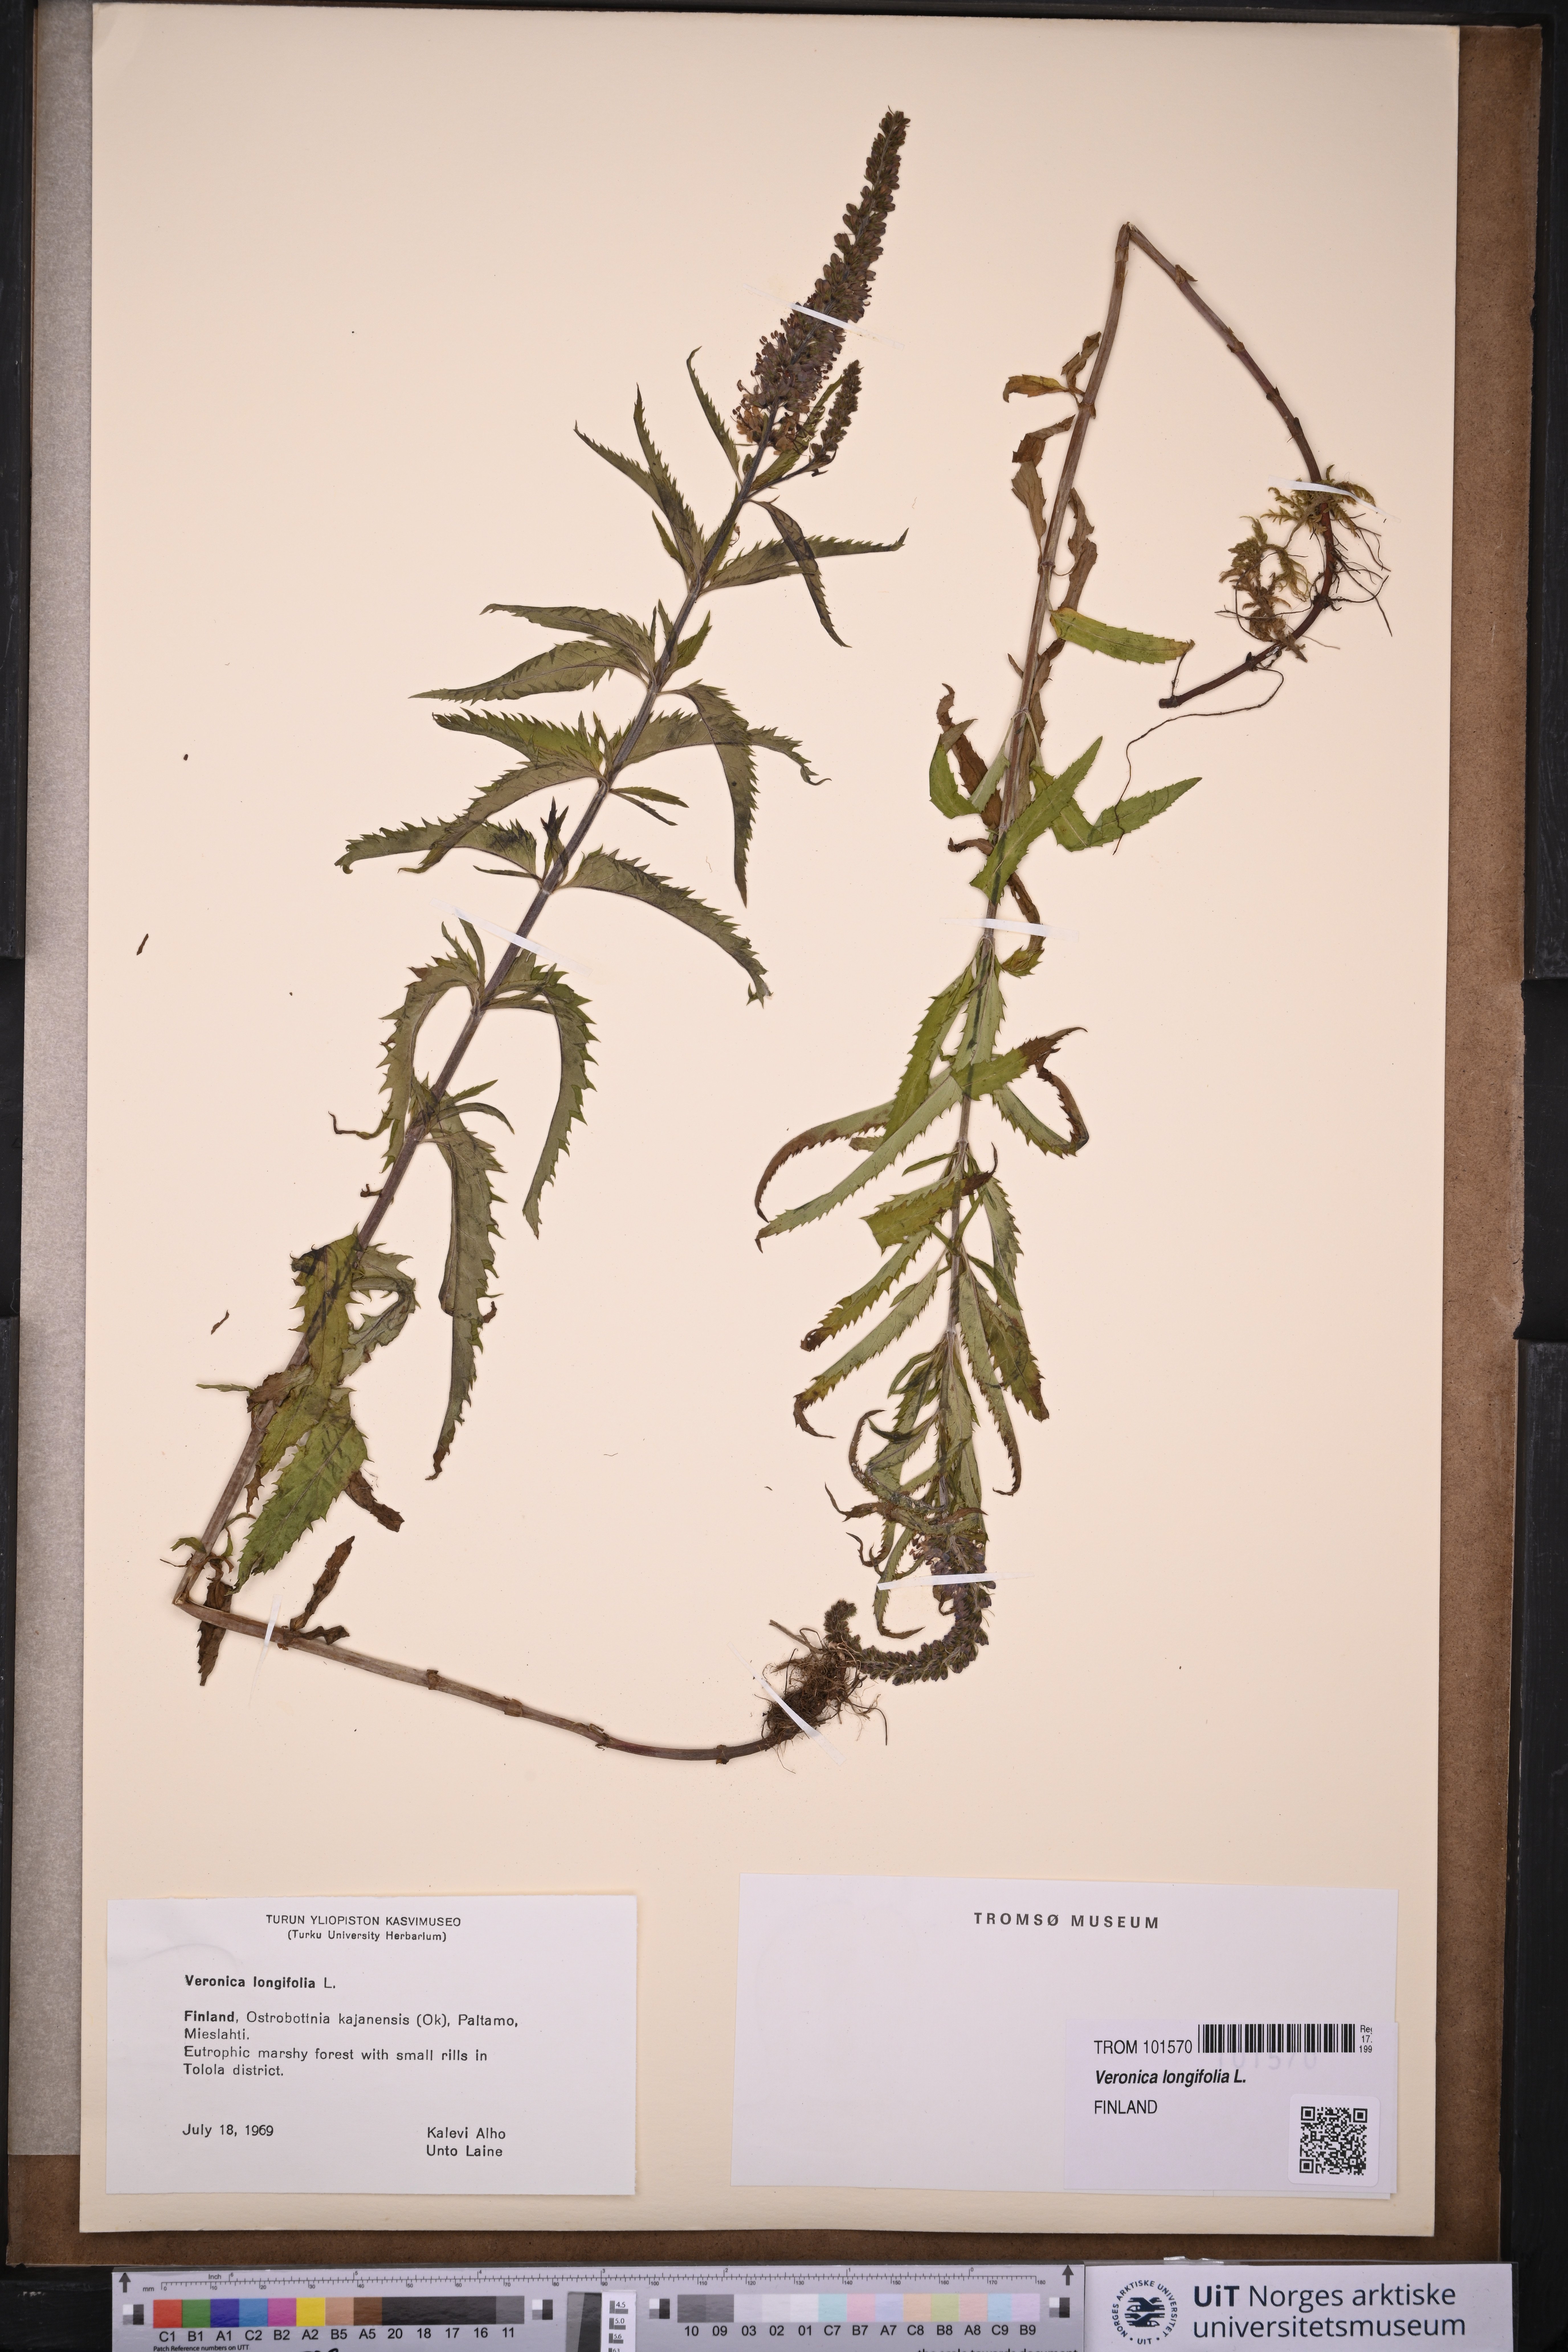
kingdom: Plantae
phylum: Tracheophyta
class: Magnoliopsida
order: Lamiales
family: Plantaginaceae
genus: Veronica
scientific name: Veronica longifolia
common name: Garden speedwell
